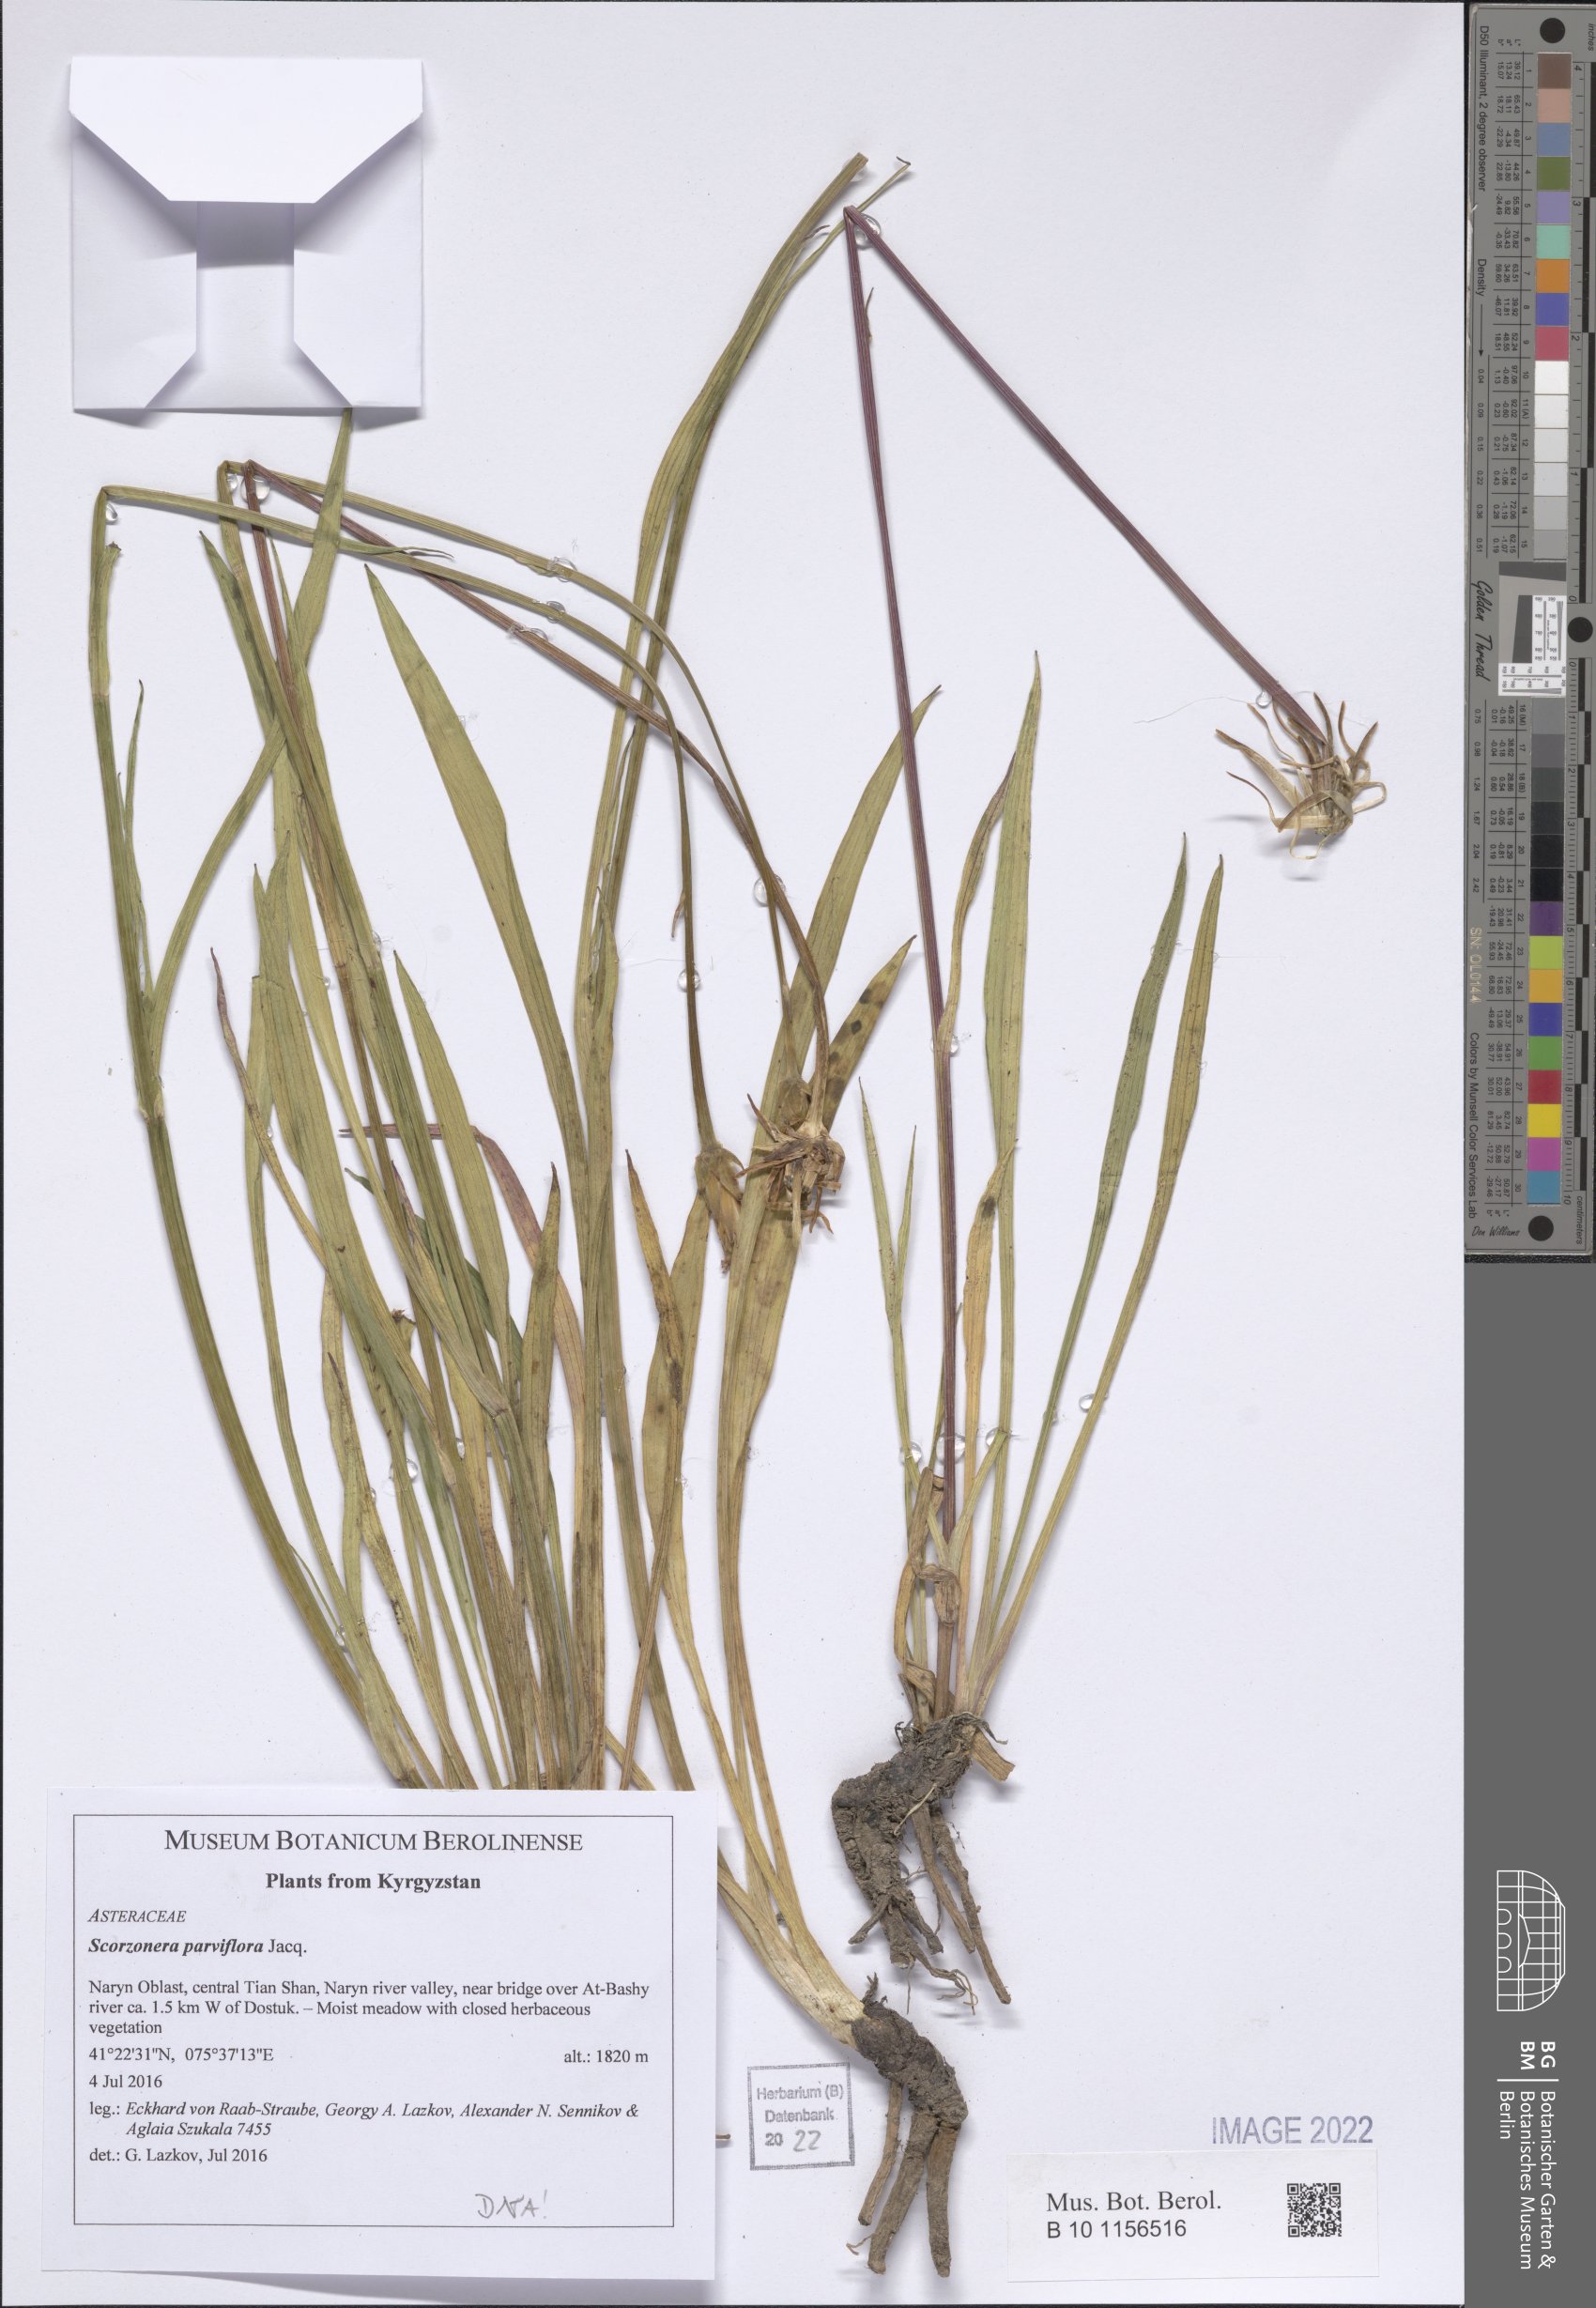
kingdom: Plantae
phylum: Tracheophyta
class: Magnoliopsida
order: Asterales
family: Asteraceae
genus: Scorzonera
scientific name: Scorzonera parviflora
